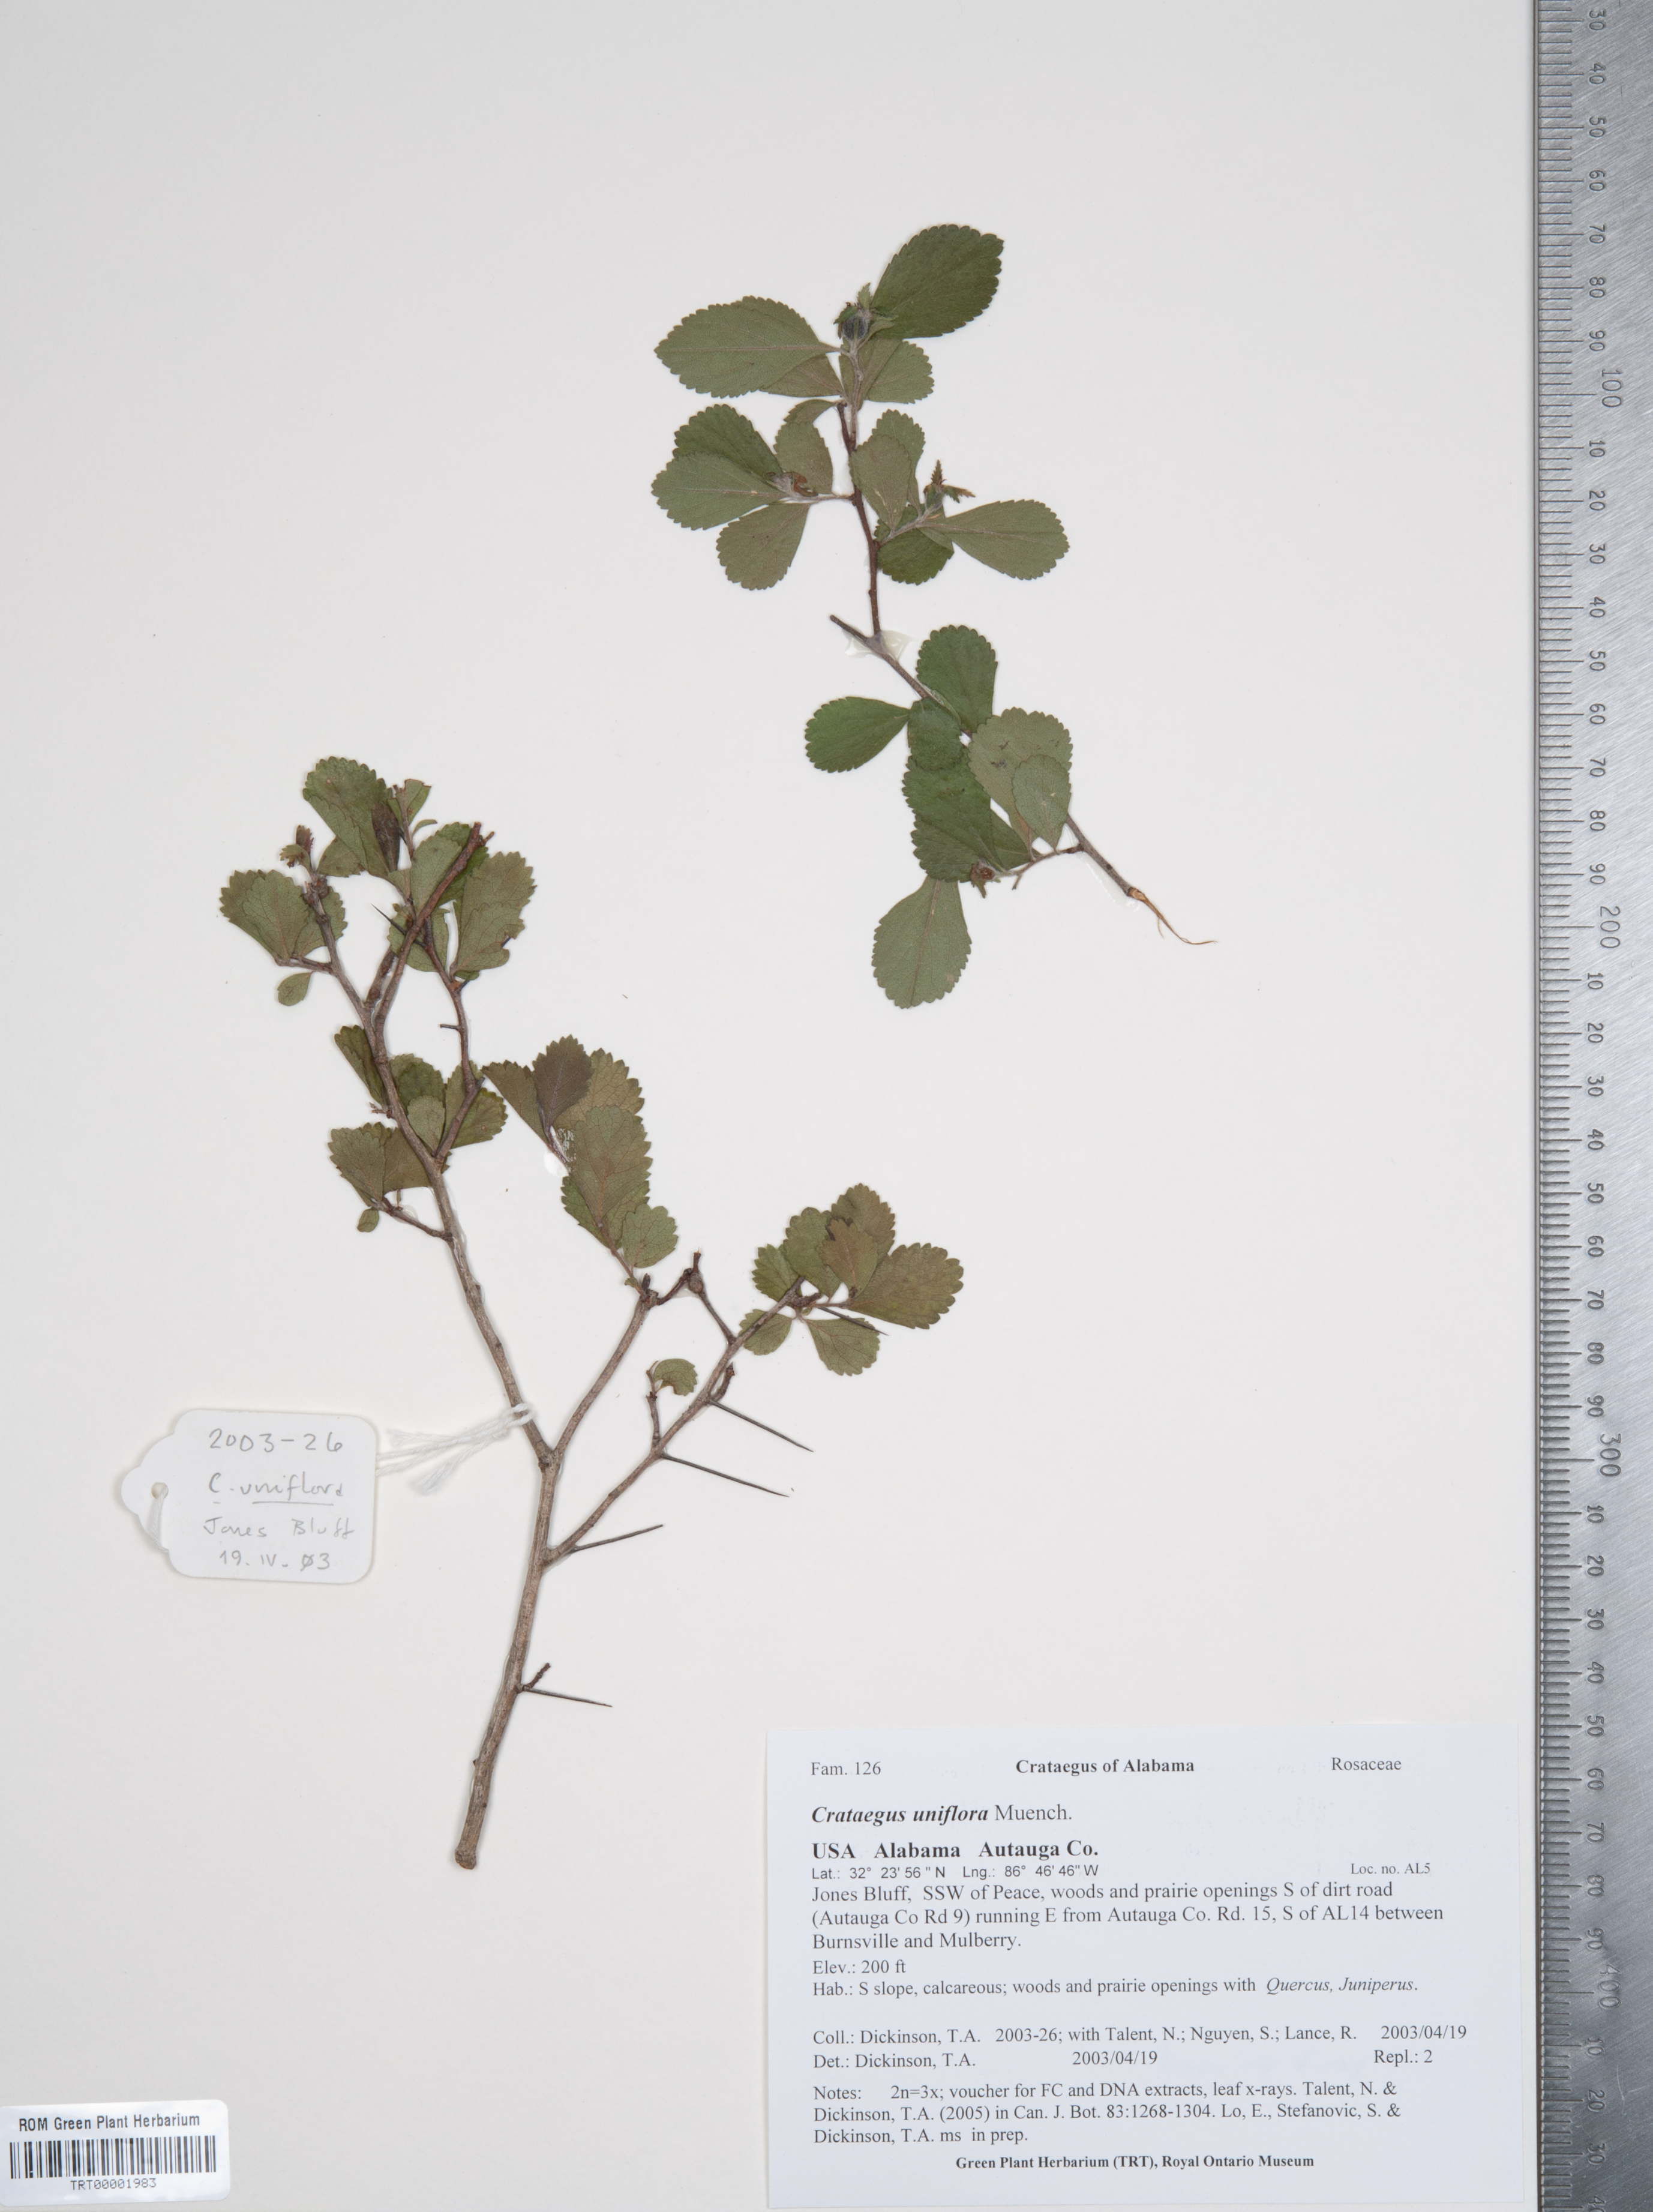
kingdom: Plantae
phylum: Tracheophyta
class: Magnoliopsida
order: Rosales
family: Rosaceae
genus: Crataegus
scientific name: Crataegus uniflora
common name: One-flower hawthorn
